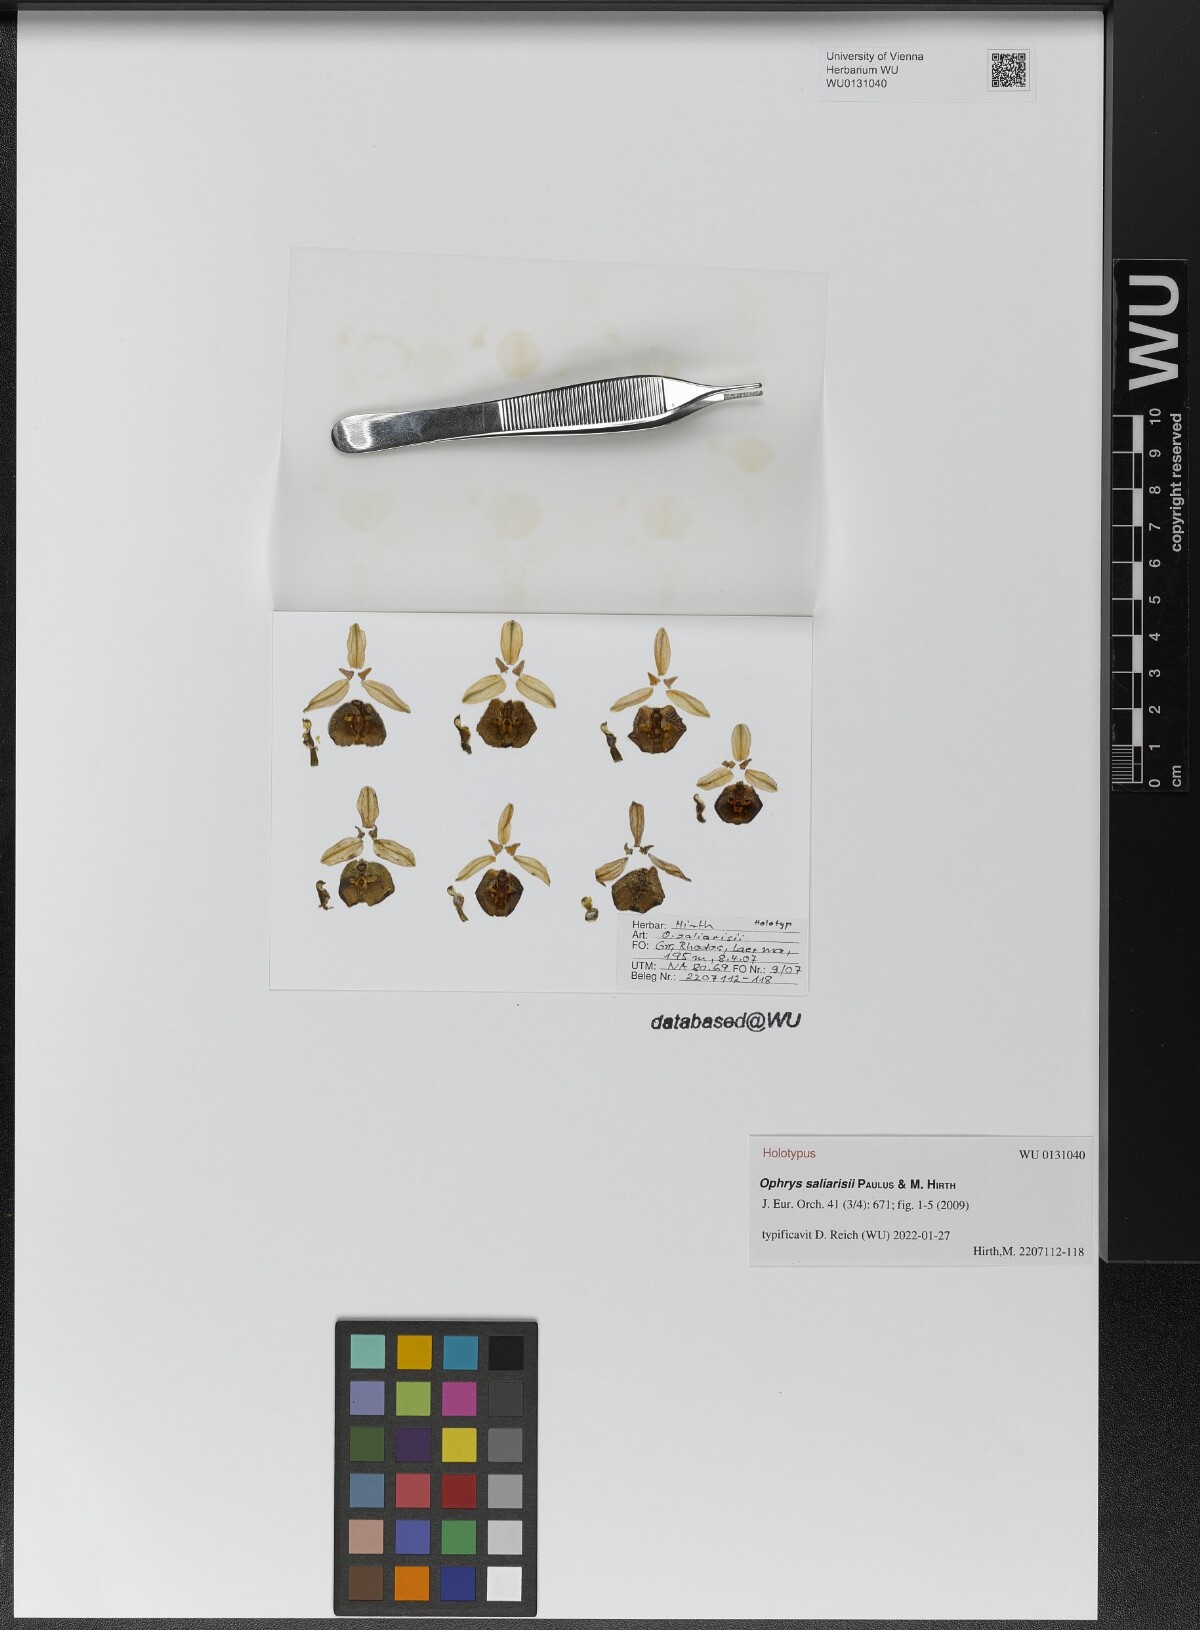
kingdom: Plantae
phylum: Tracheophyta
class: Liliopsida
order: Asparagales
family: Orchidaceae
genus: Ophrys
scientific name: Ophrys holosericea
